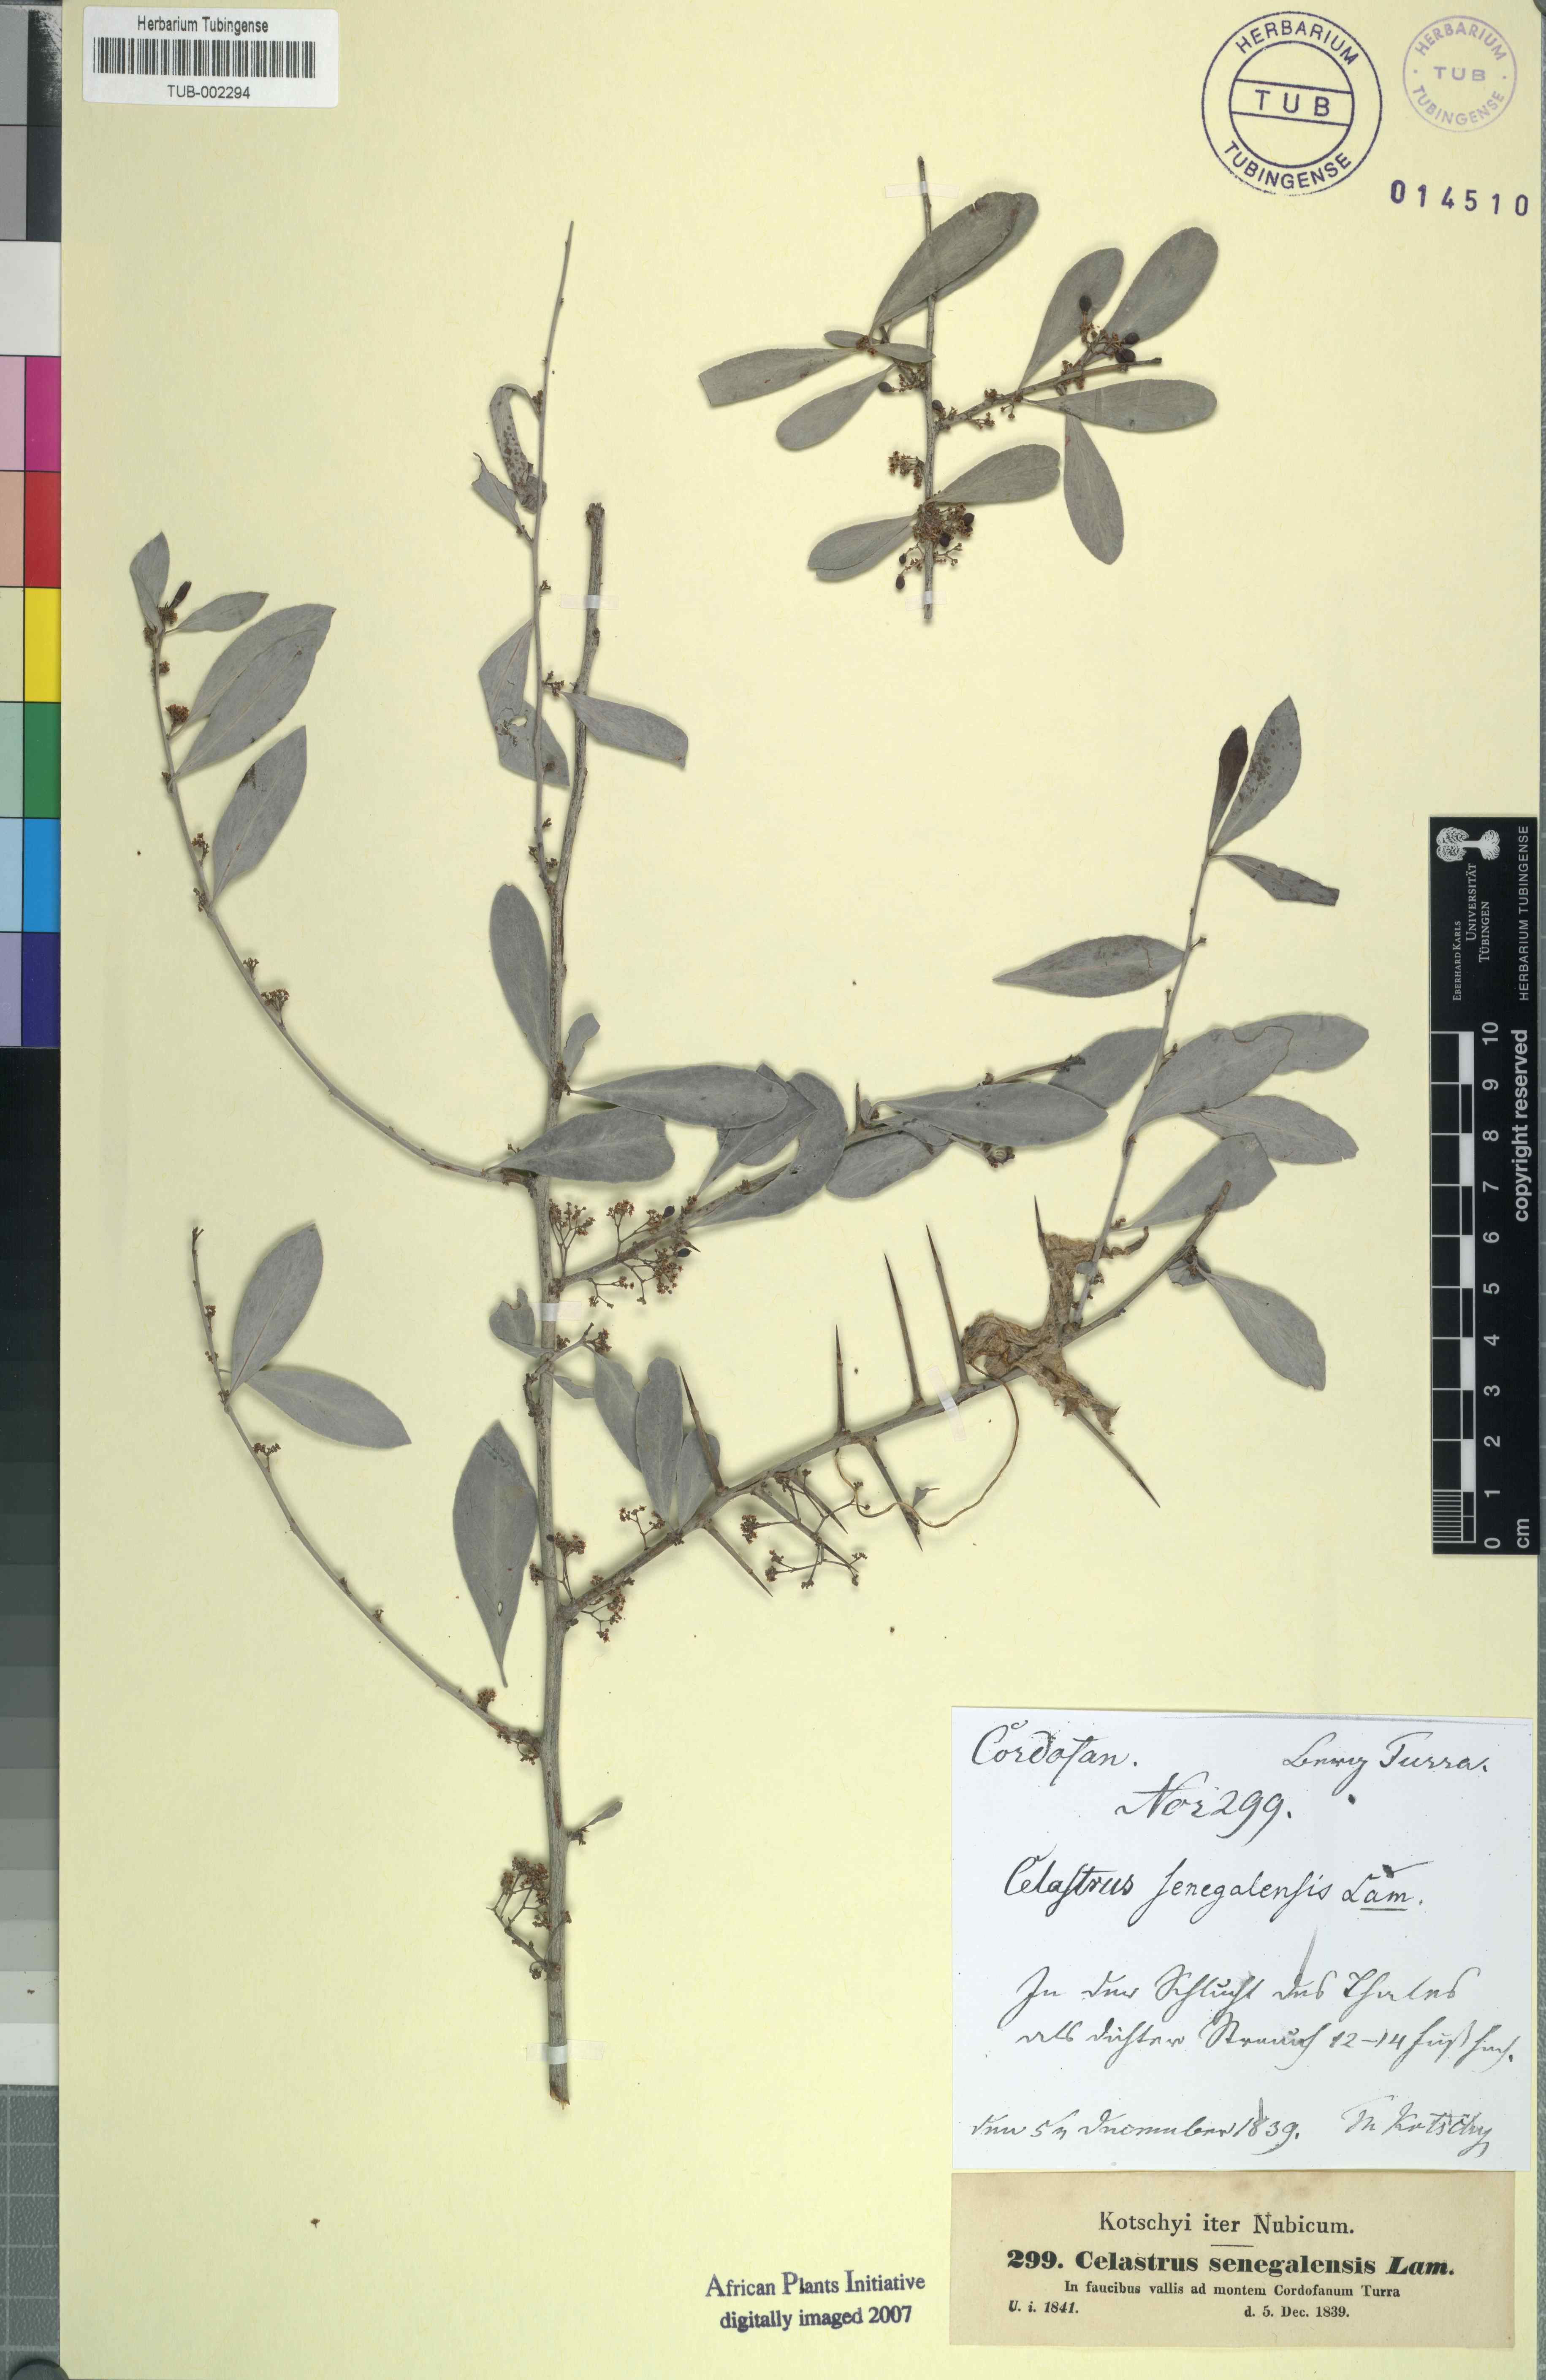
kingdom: Plantae
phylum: Tracheophyta
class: Magnoliopsida
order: Celastrales
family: Celastraceae
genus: Gymnosporia
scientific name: Gymnosporia senegalensis
